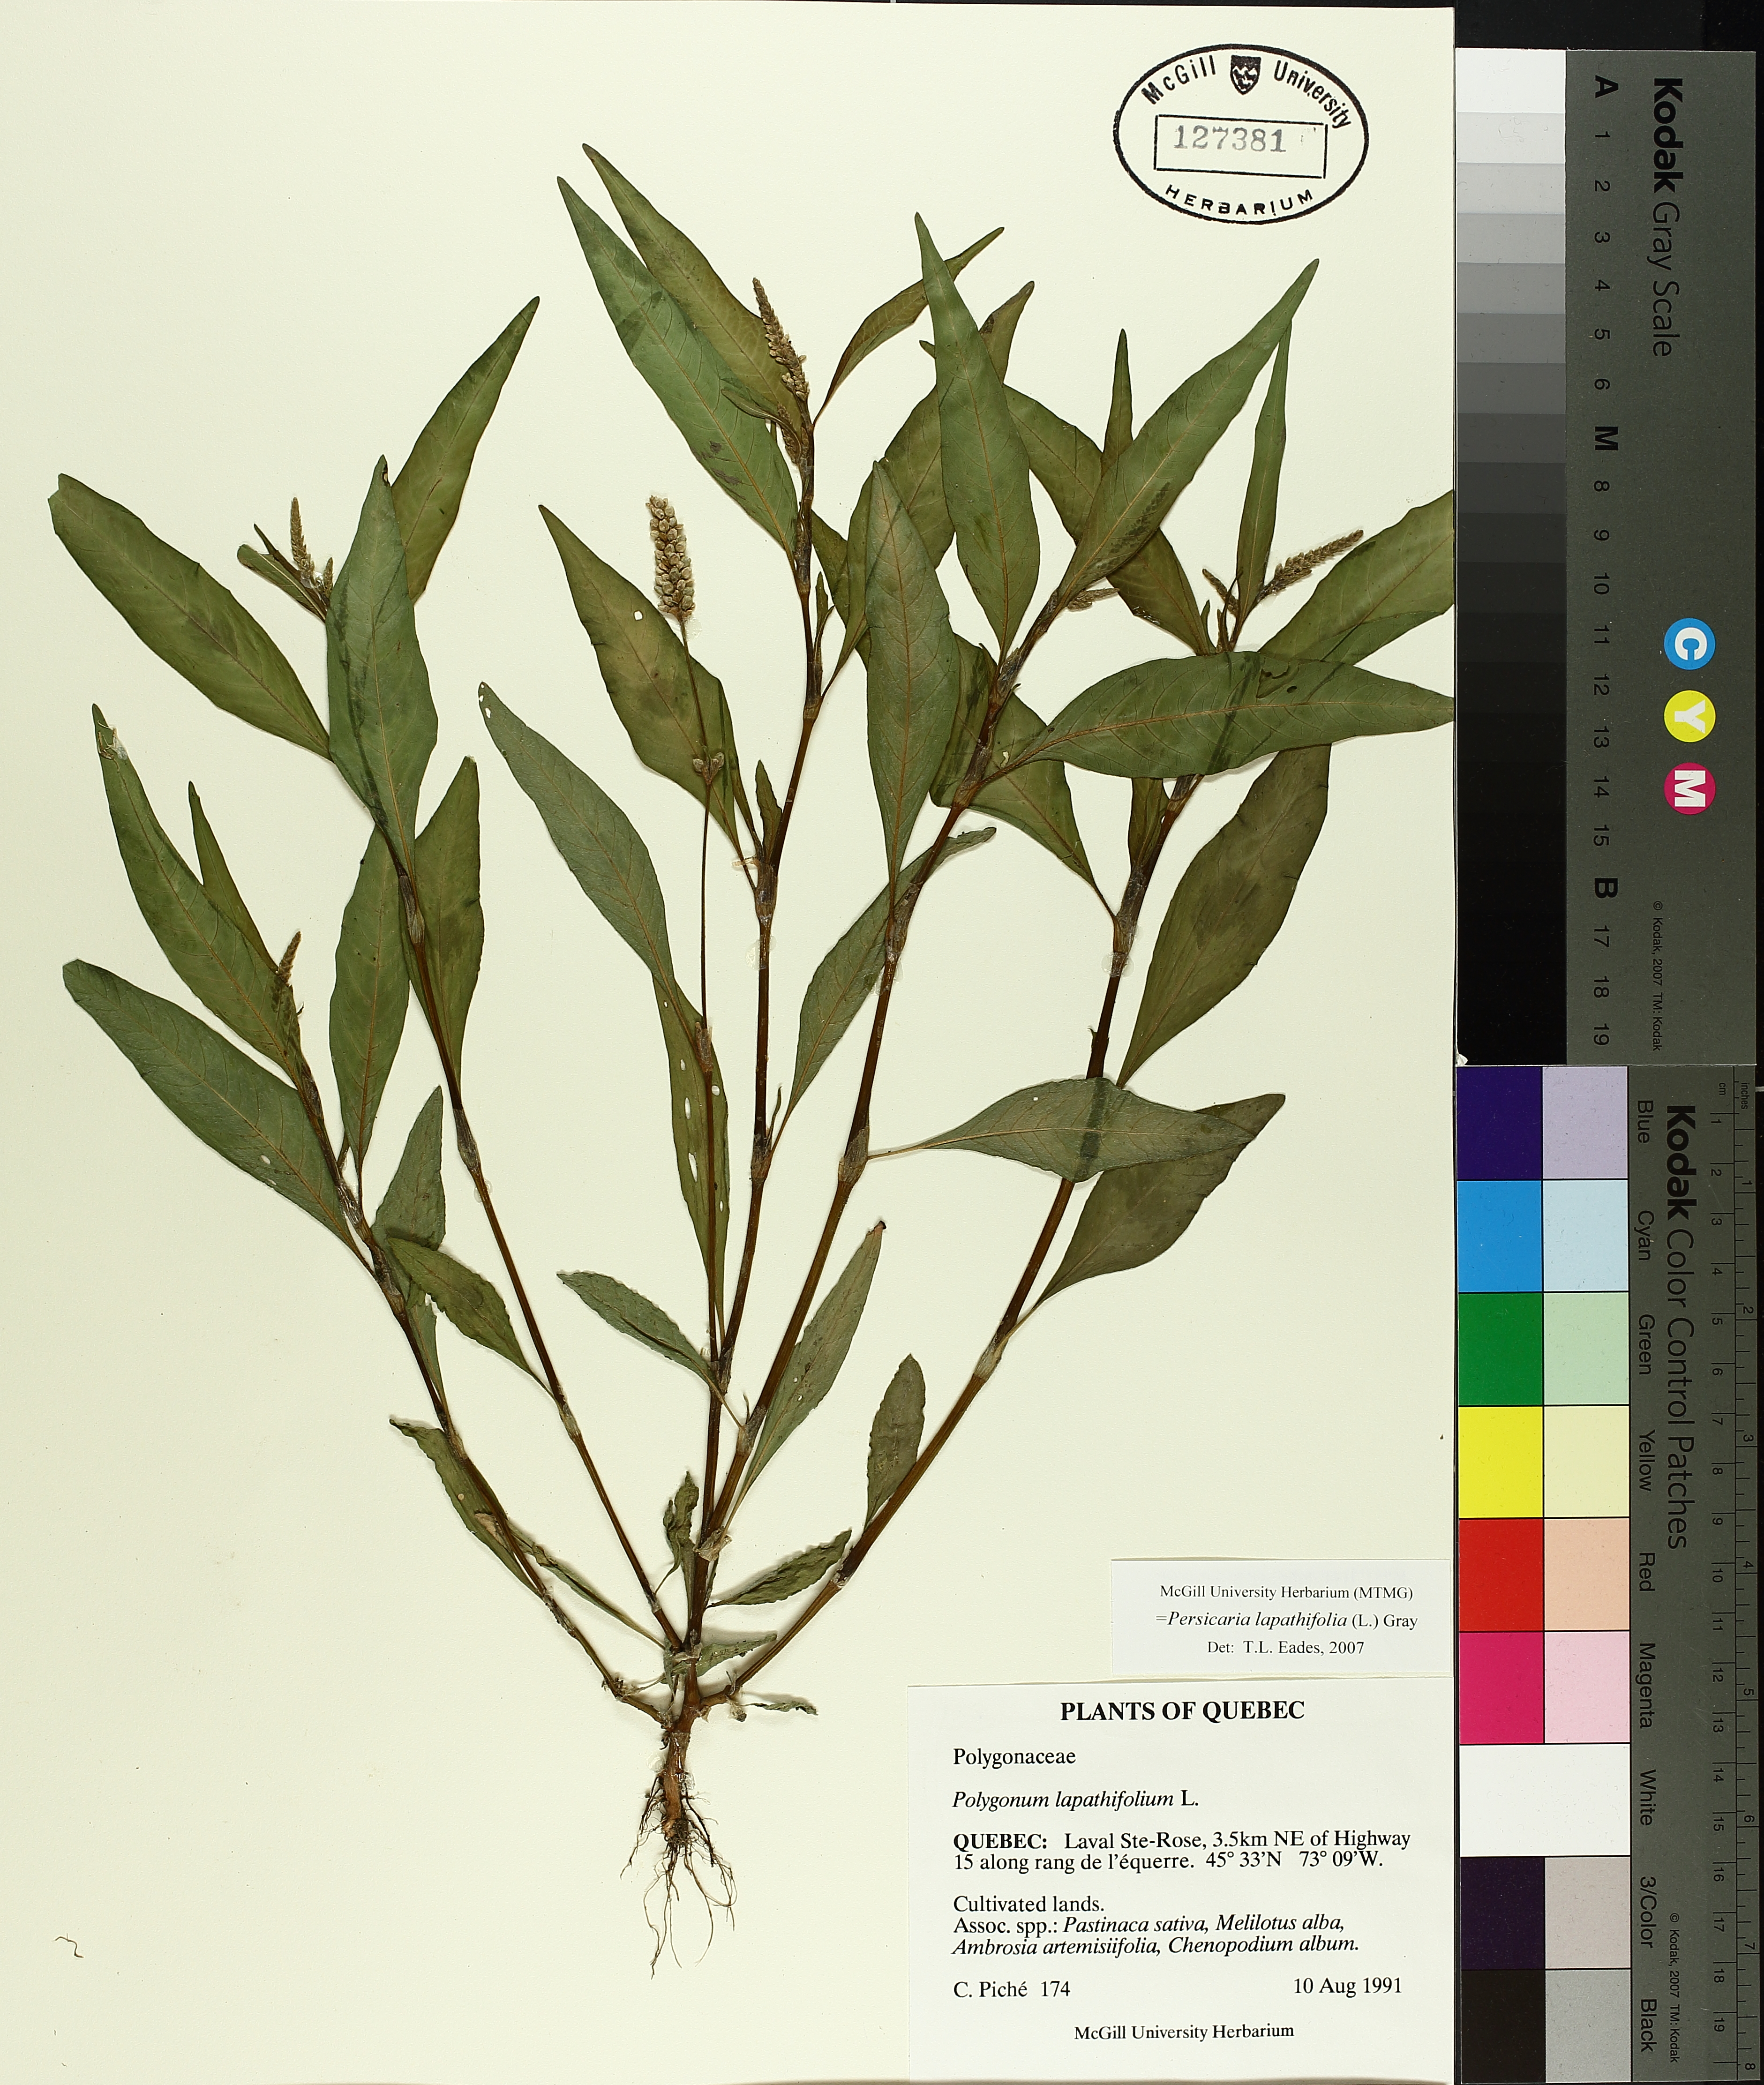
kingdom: Plantae
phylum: Tracheophyta
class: Magnoliopsida
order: Caryophyllales
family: Polygonaceae
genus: Persicaria
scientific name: Persicaria lapathifolia
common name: Curlytop knotweed
